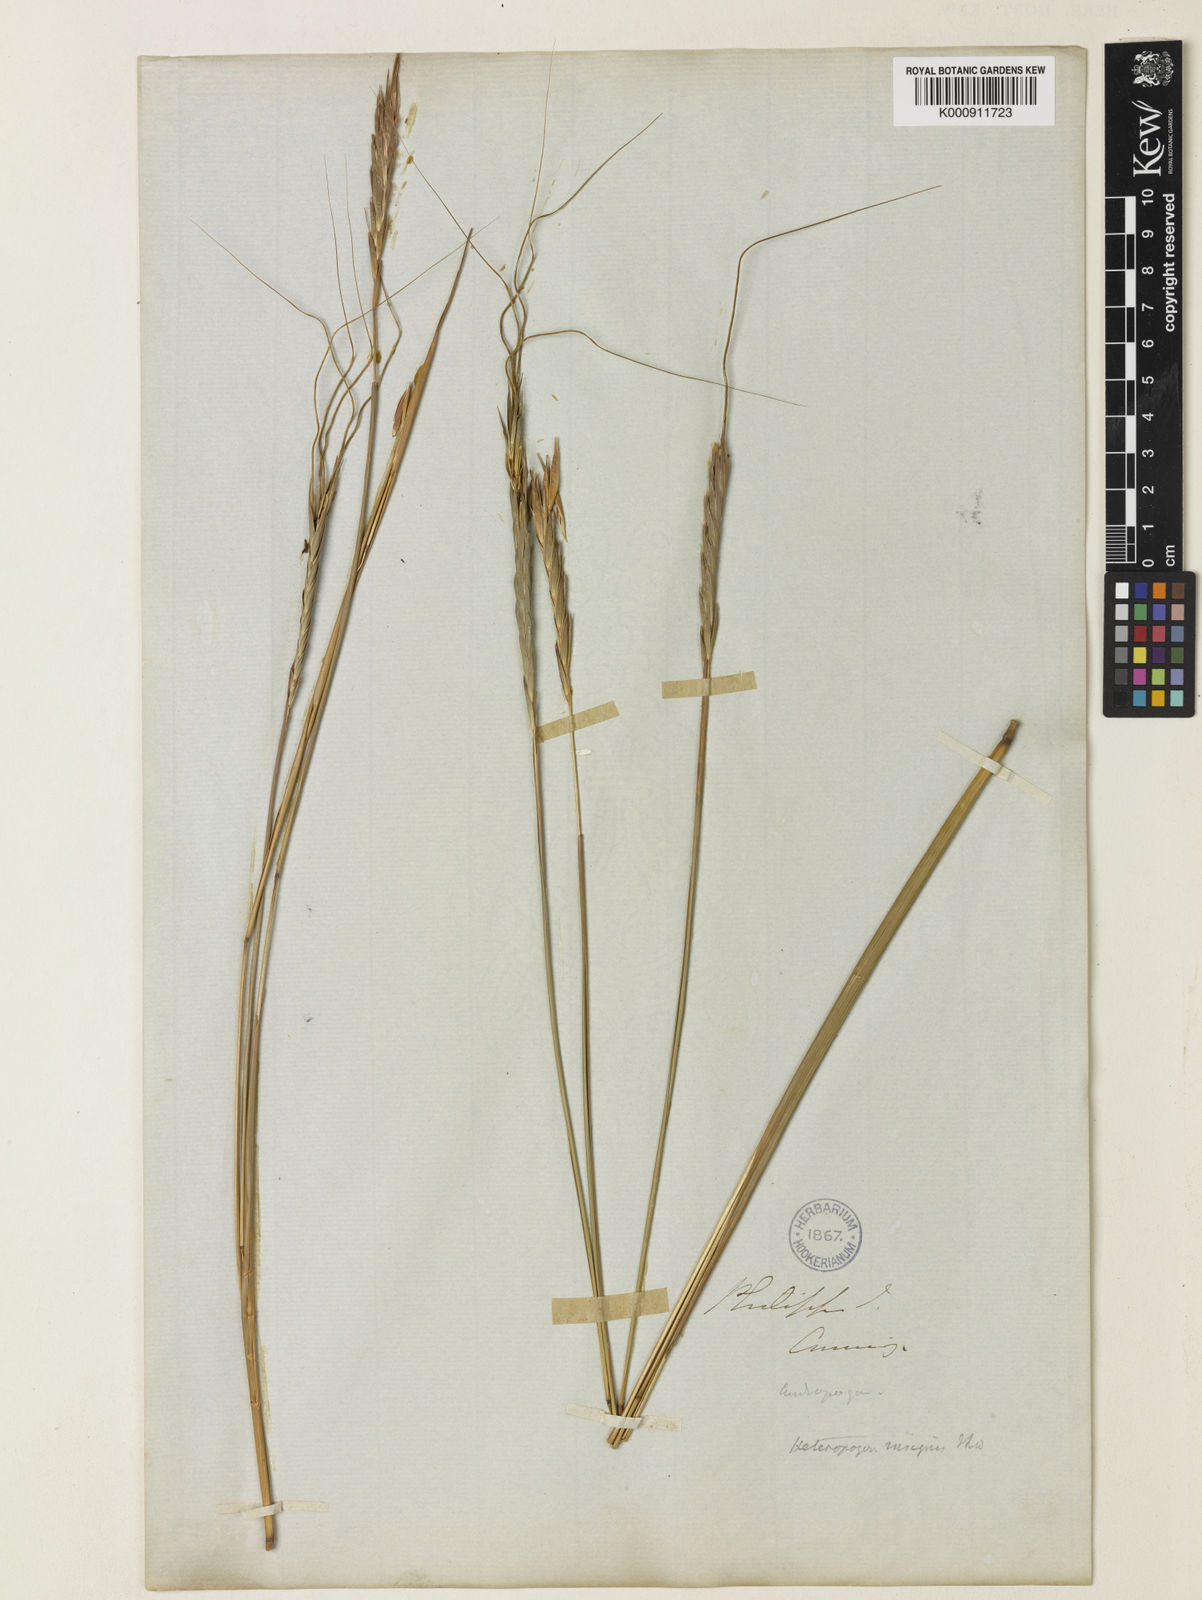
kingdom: Plantae
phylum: Tracheophyta
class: Liliopsida
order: Poales
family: Poaceae
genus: Heteropogon
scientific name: Heteropogon triticeus
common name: Sugar grass
